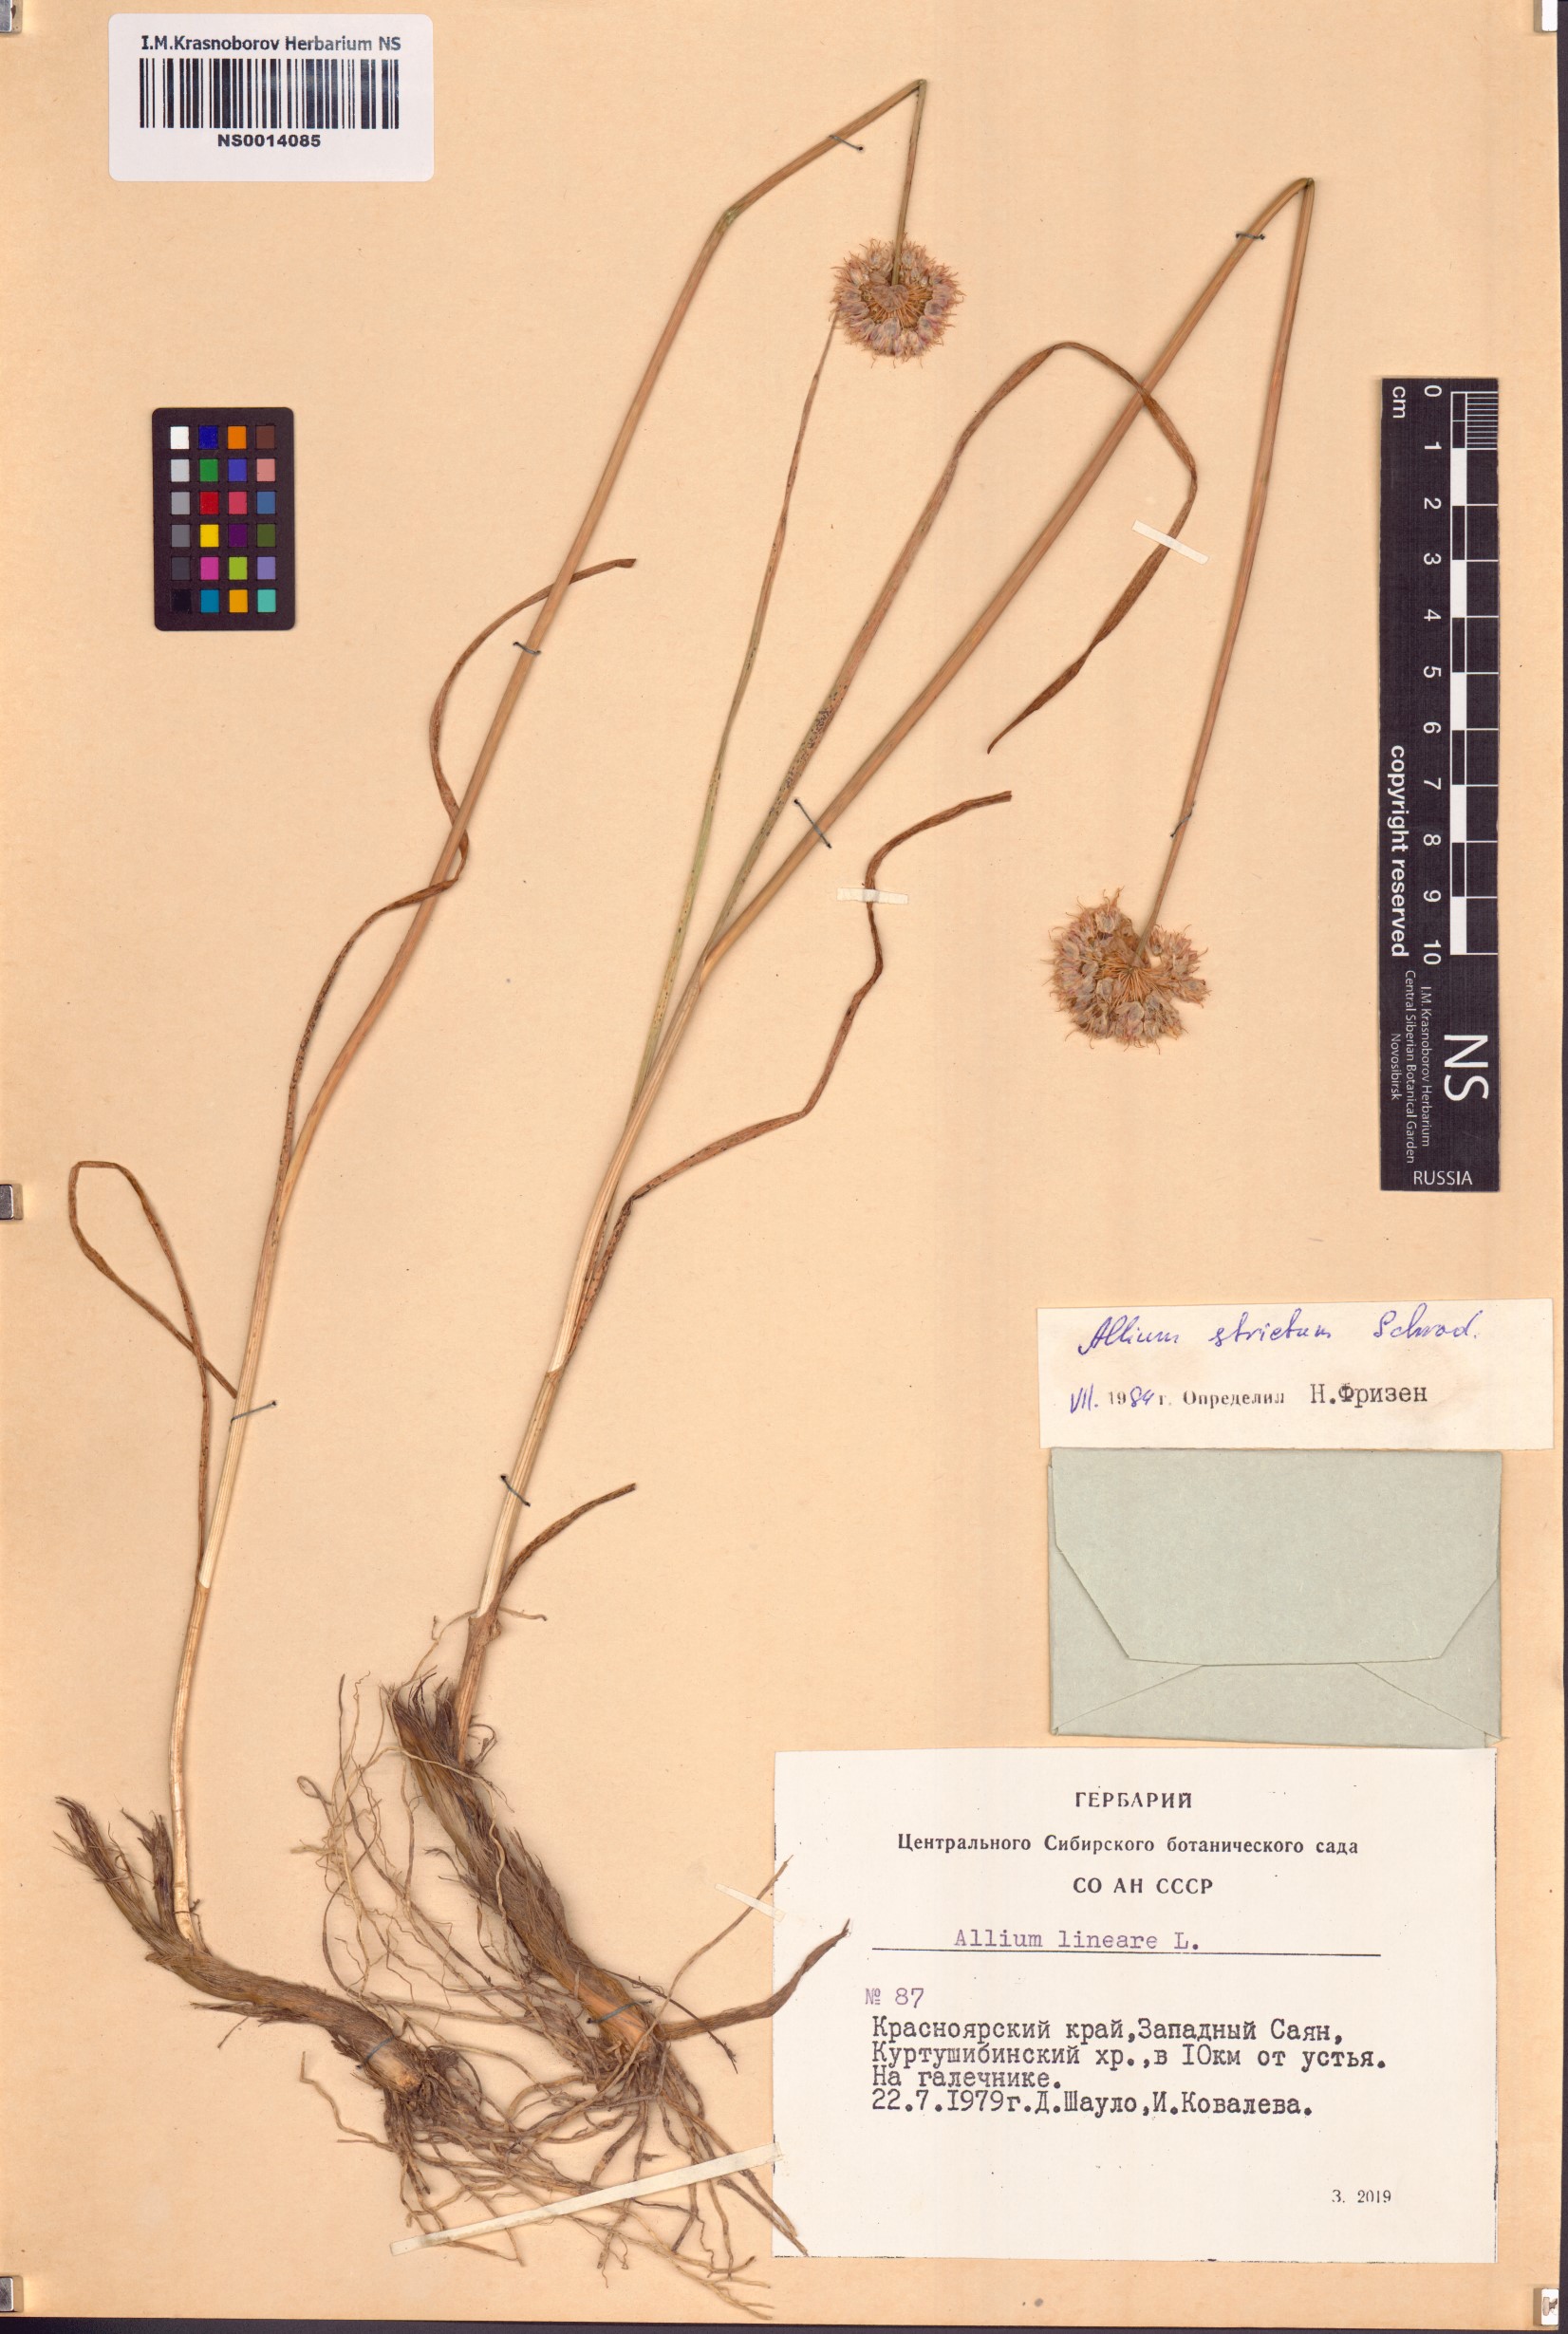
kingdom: Plantae
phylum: Tracheophyta
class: Liliopsida
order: Asparagales
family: Amaryllidaceae
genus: Allium
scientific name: Allium strictum
